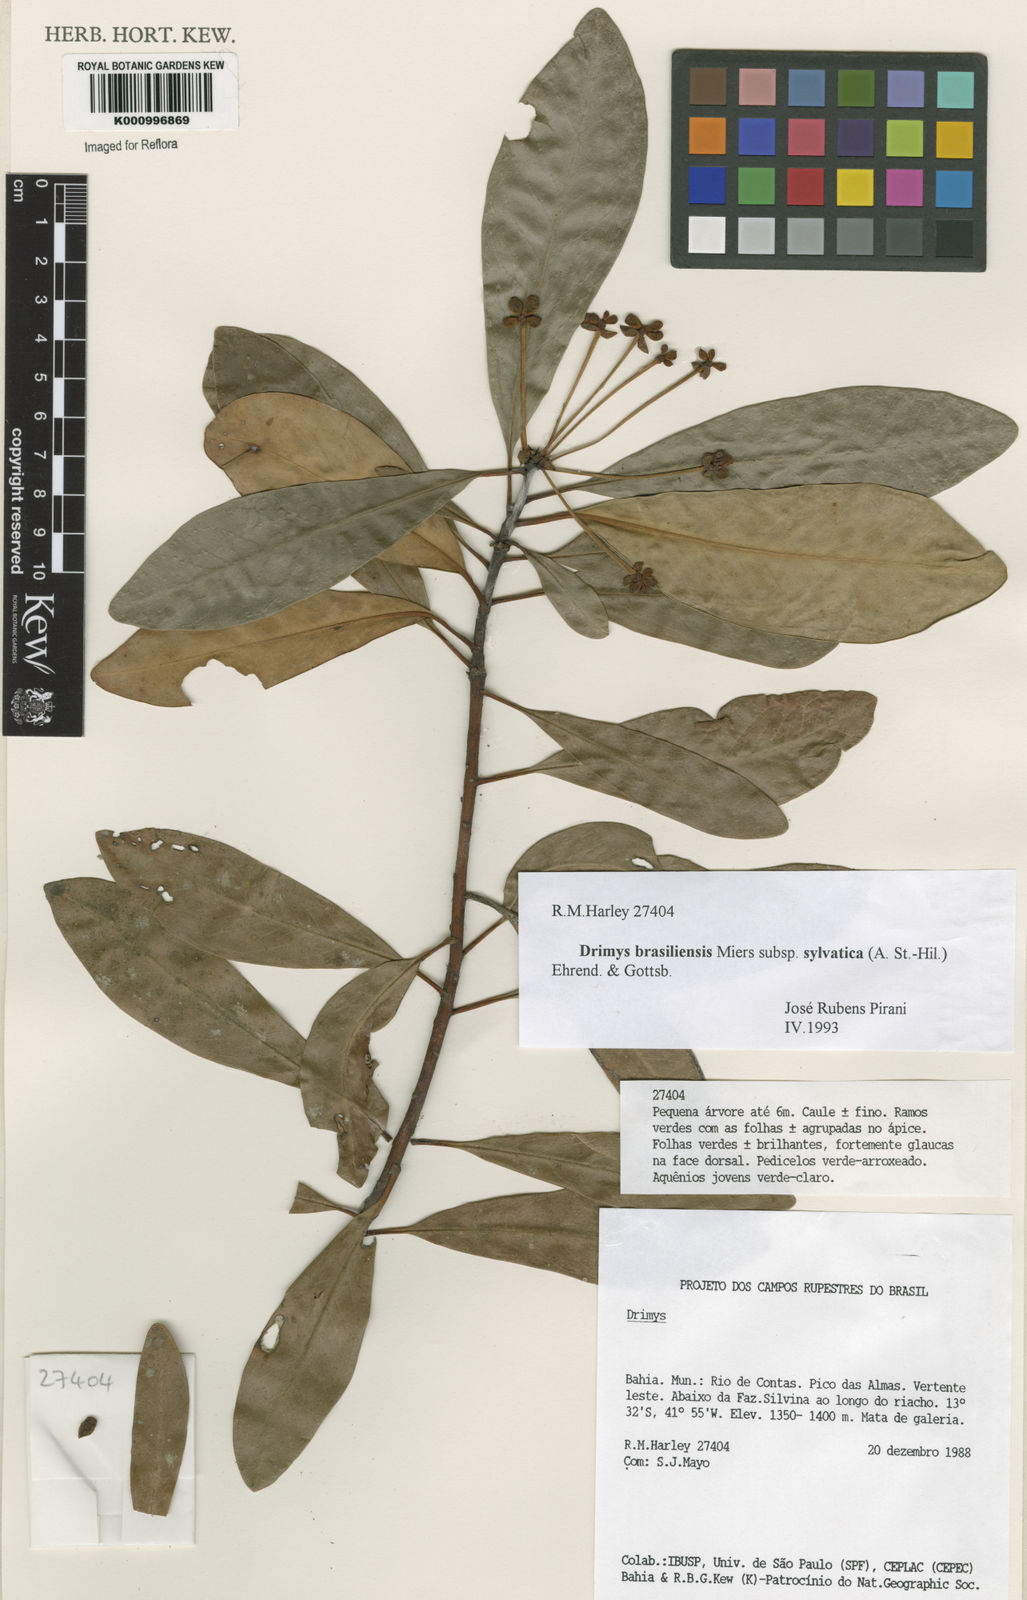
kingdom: Plantae
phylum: Tracheophyta
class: Magnoliopsida
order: Canellales
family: Winteraceae
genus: Drimys
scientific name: Drimys brasiliensis
